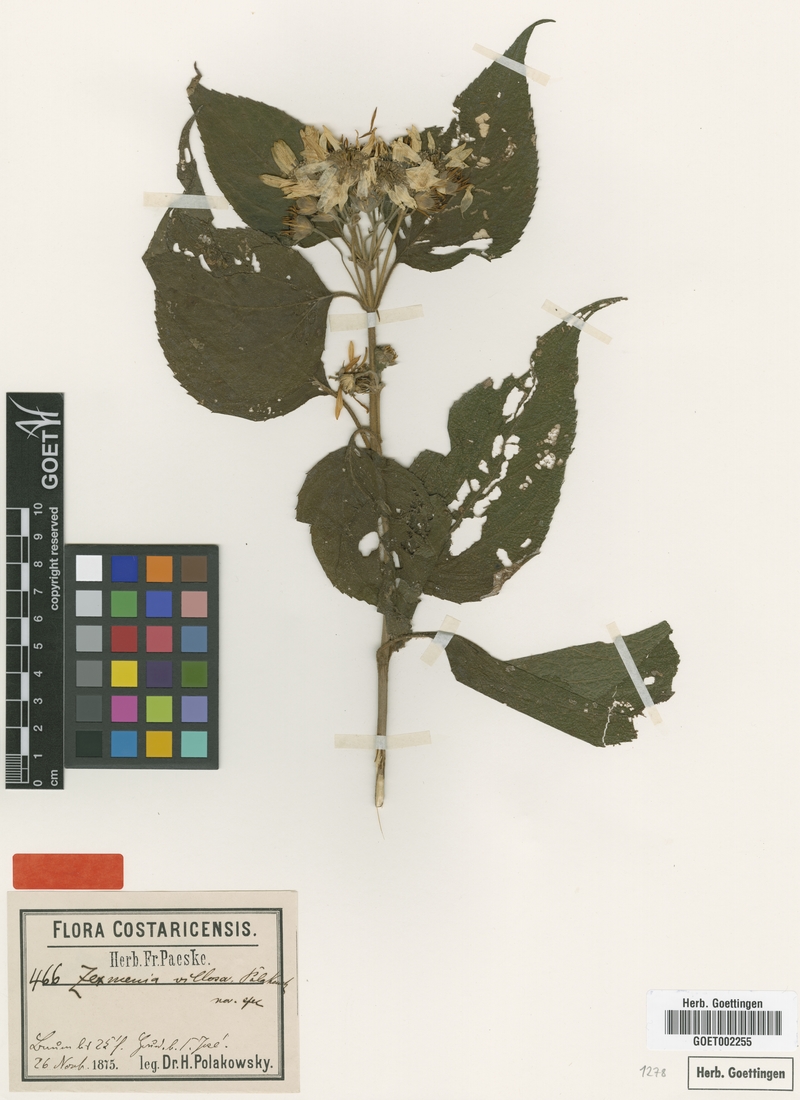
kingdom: Plantae
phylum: Tracheophyta
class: Magnoliopsida
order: Asterales
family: Asteraceae
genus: Lasianthaea
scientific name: Lasianthaea fruticosa
